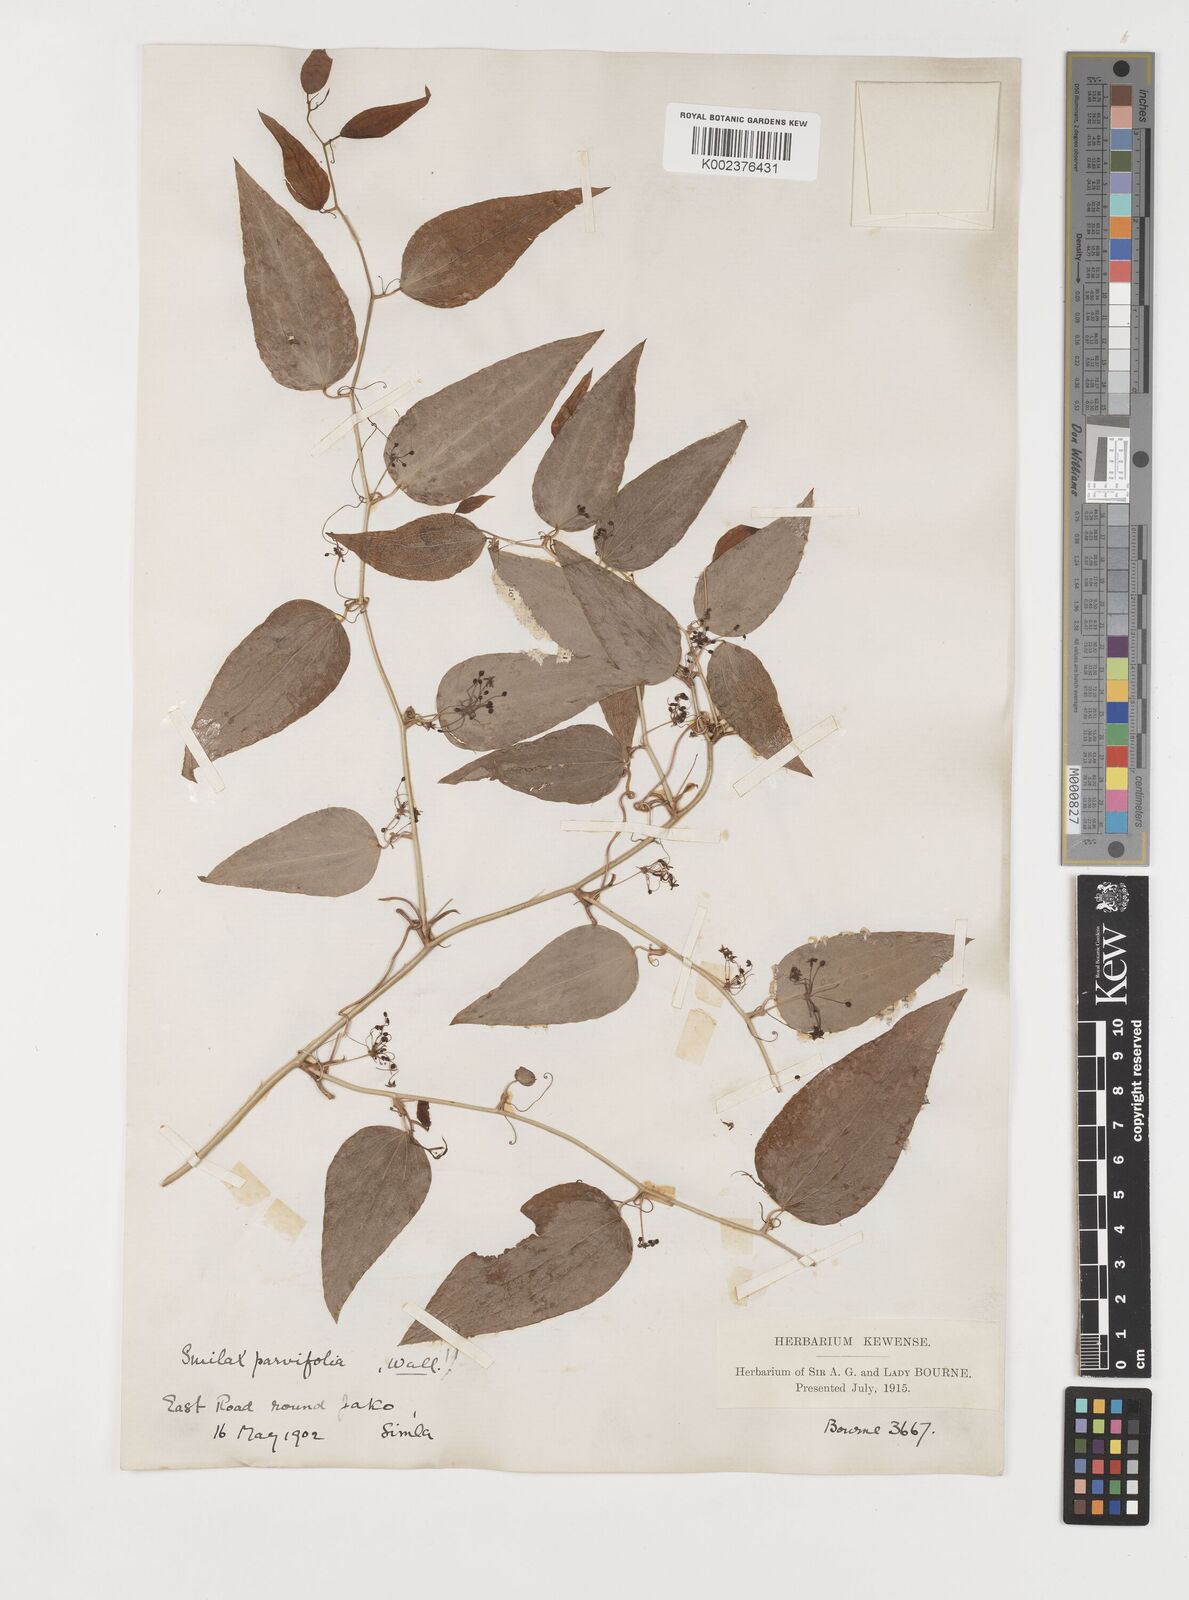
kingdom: Plantae
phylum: Tracheophyta
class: Liliopsida
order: Liliales
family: Smilacaceae
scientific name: Smilacaceae
